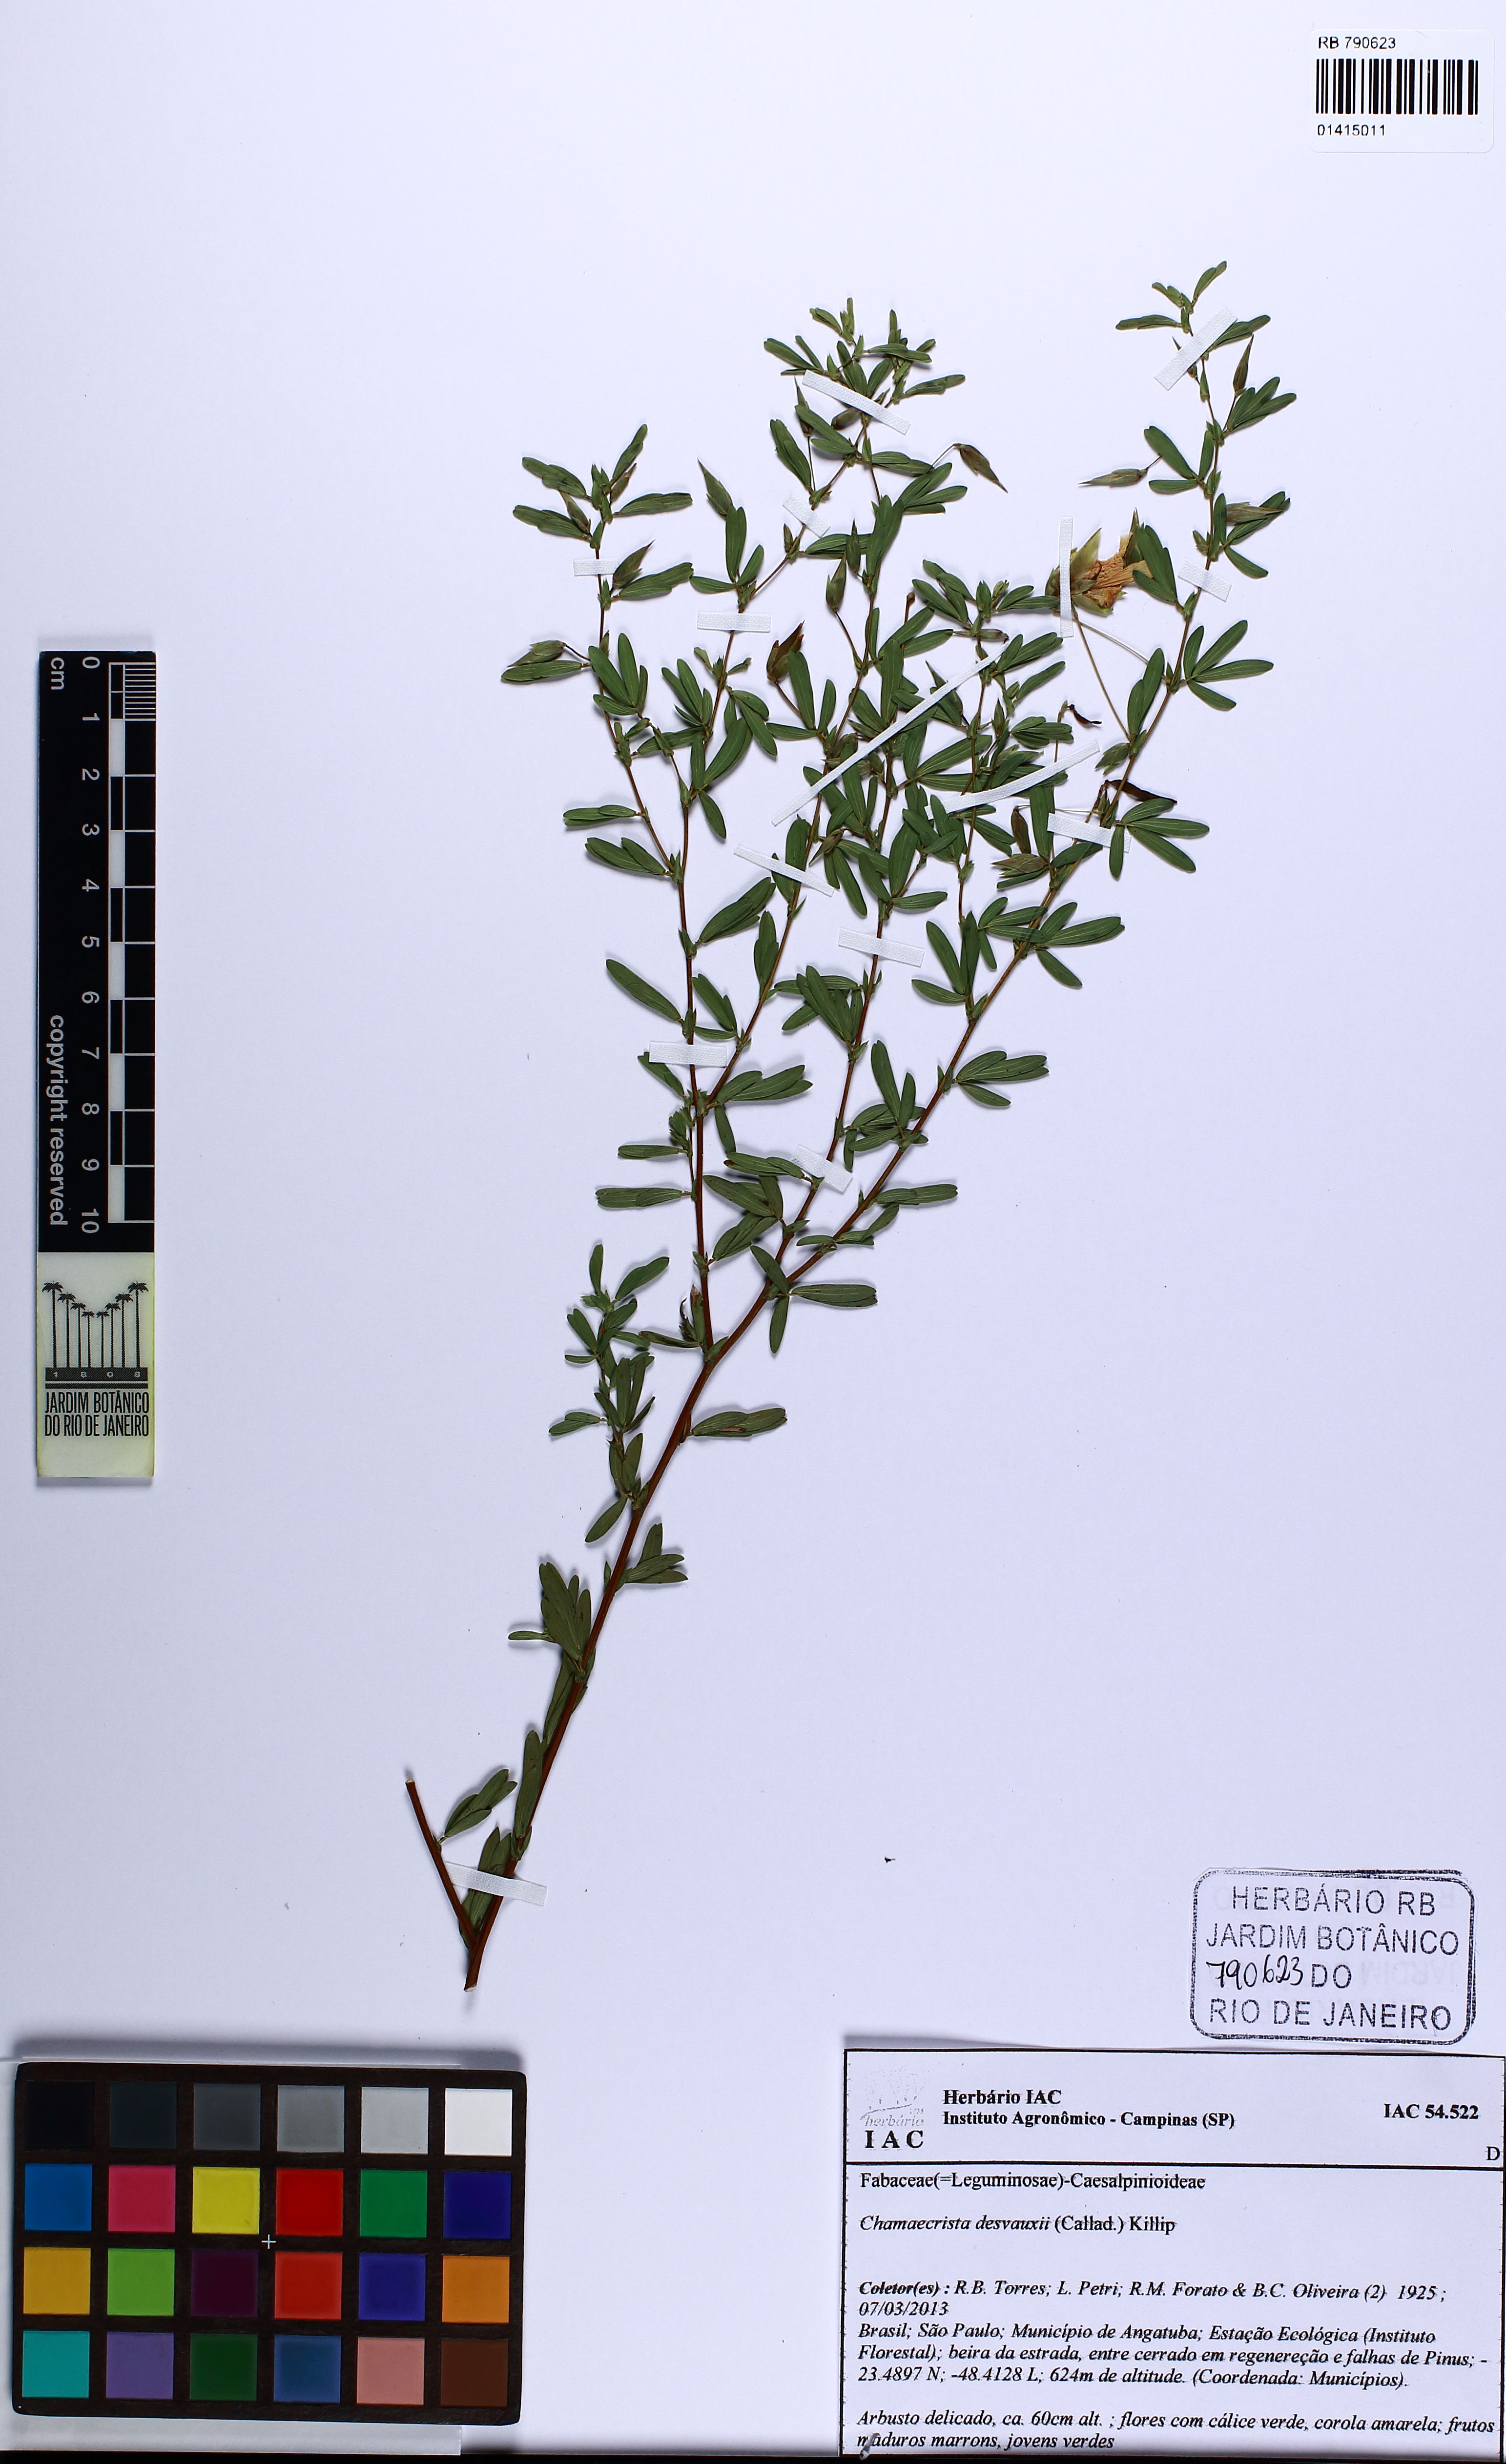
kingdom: Plantae
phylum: Tracheophyta
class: Magnoliopsida
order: Fabales
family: Fabaceae
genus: Chamaecrista
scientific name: Chamaecrista desvauxii
